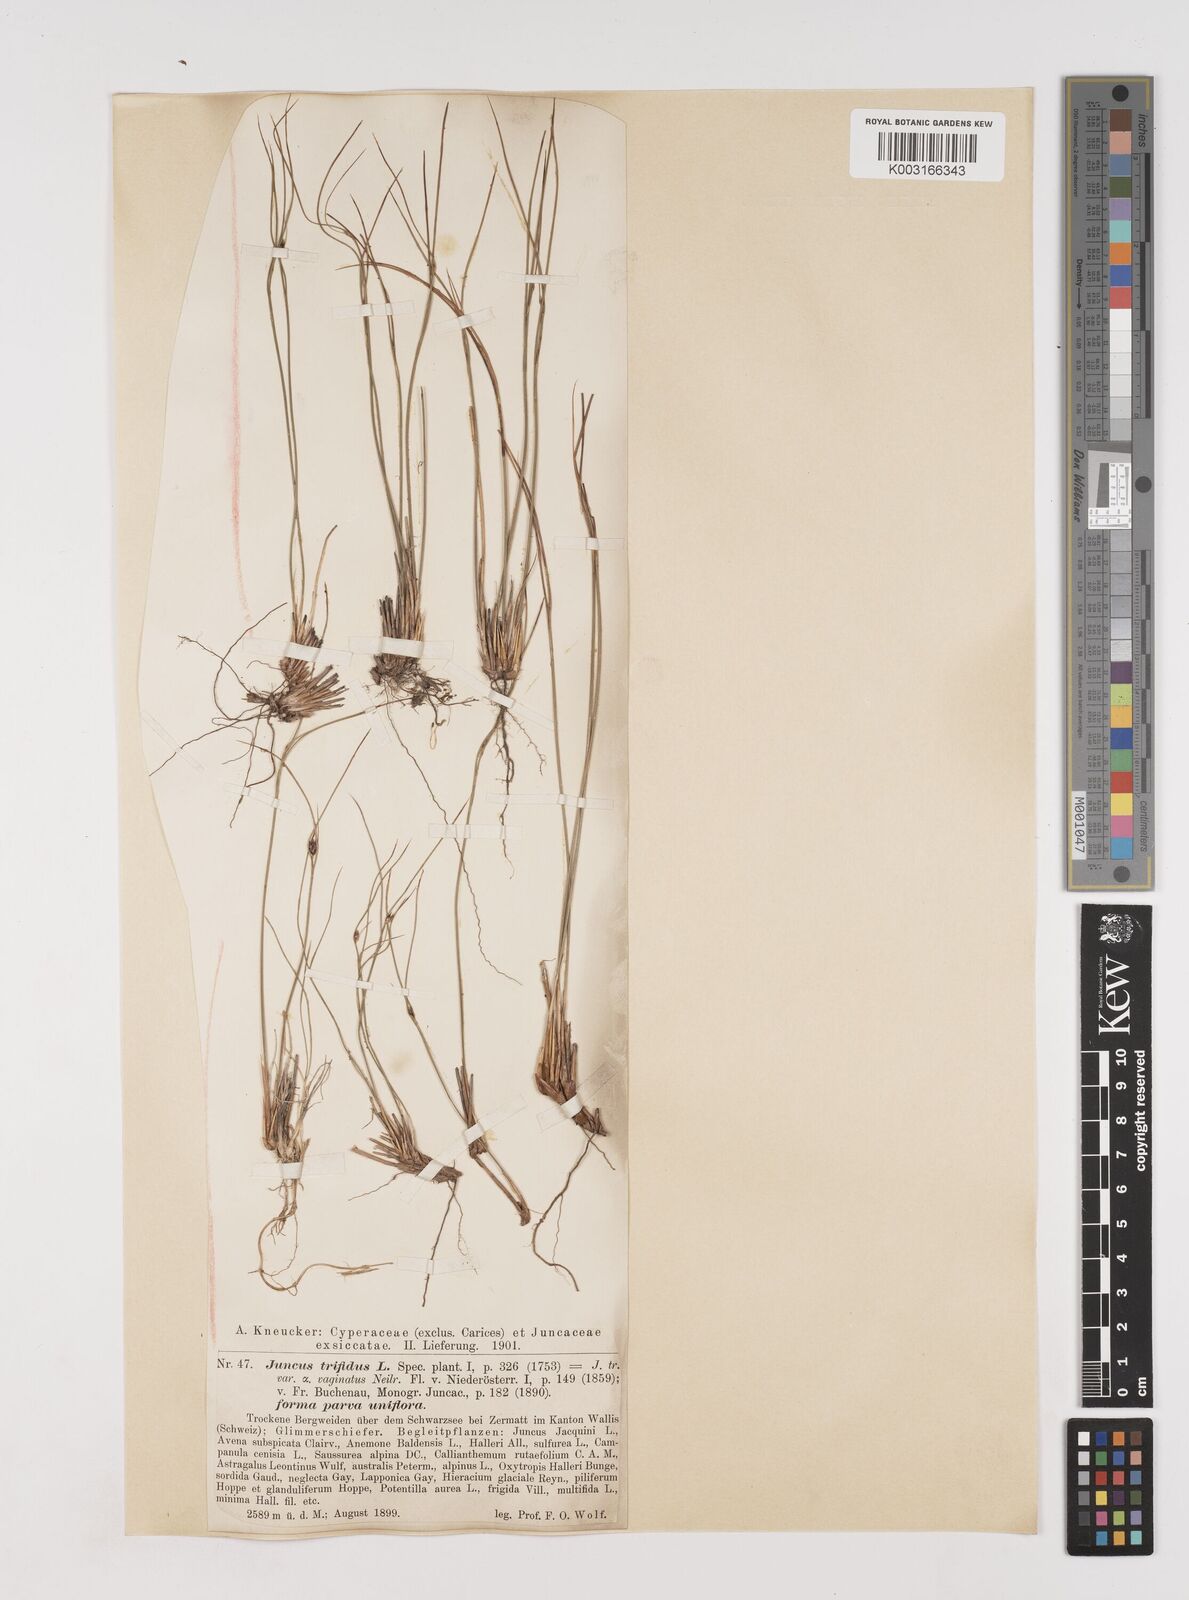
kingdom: Plantae
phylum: Tracheophyta
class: Liliopsida
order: Poales
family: Juncaceae
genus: Oreojuncus
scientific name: Oreojuncus trifidus
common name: Highland rush
